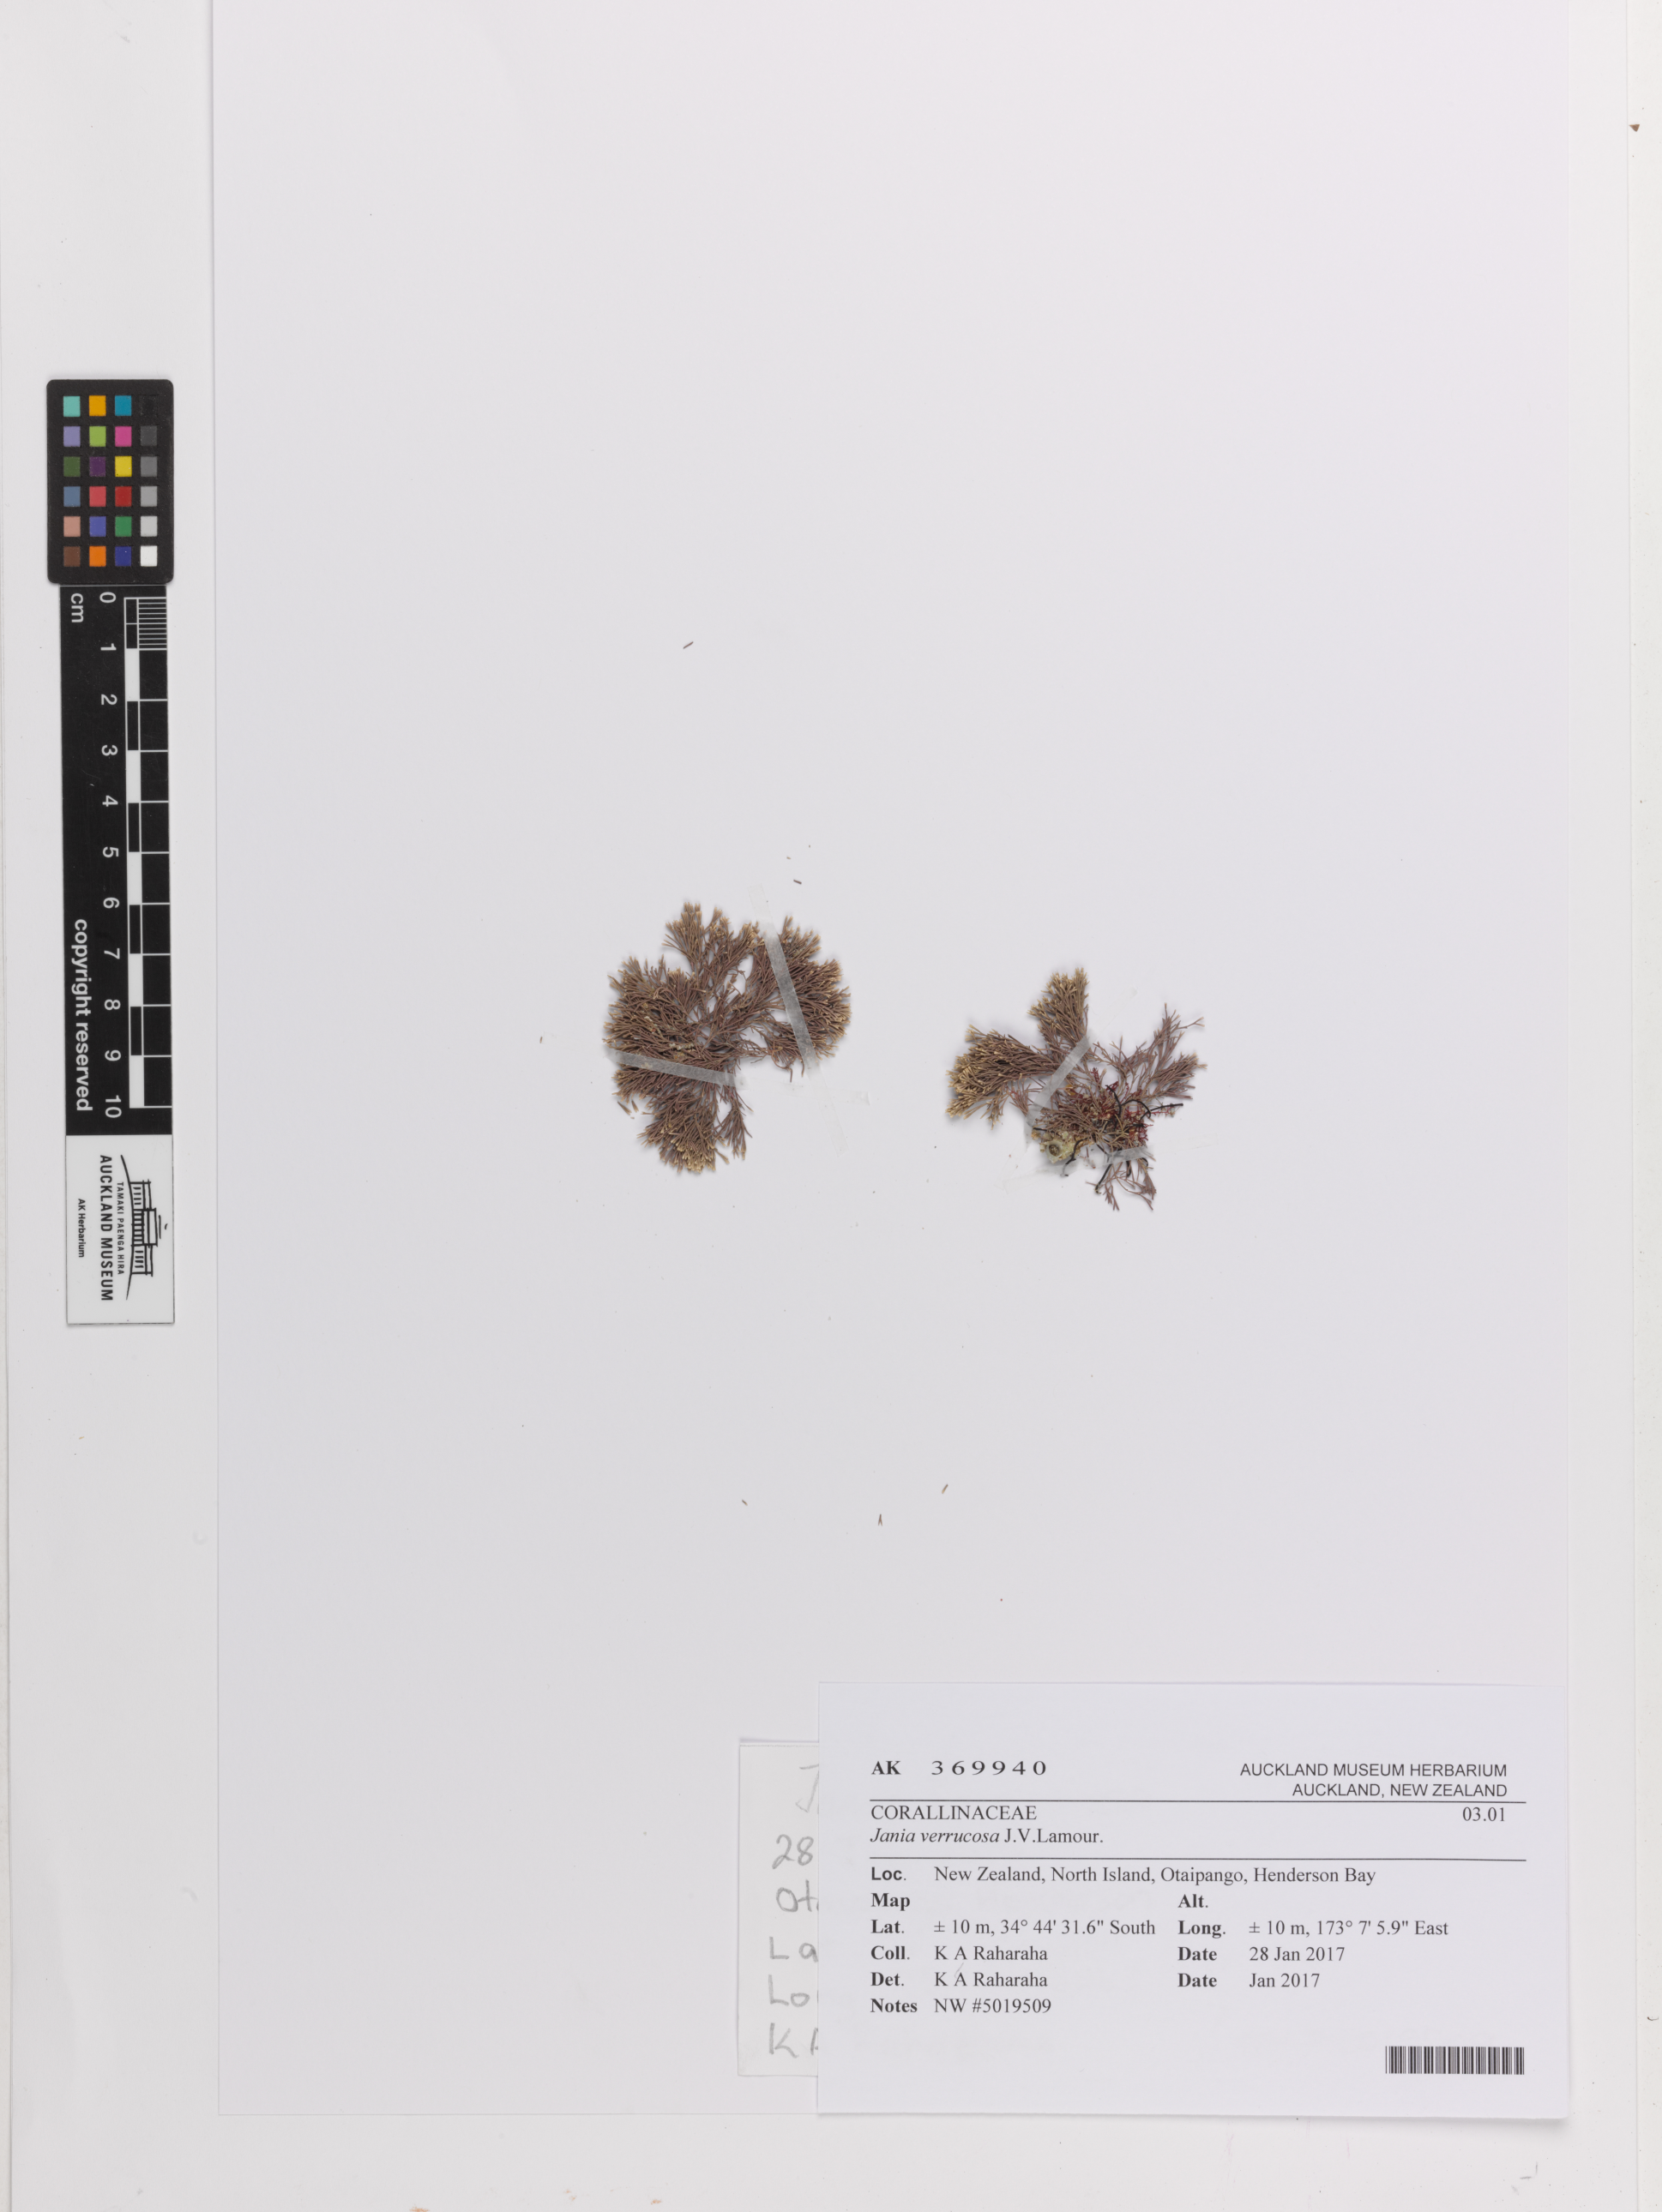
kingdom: Plantae
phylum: Rhodophyta
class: Florideophyceae
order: Corallinales
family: Corallinaceae
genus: Jania
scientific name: Jania
